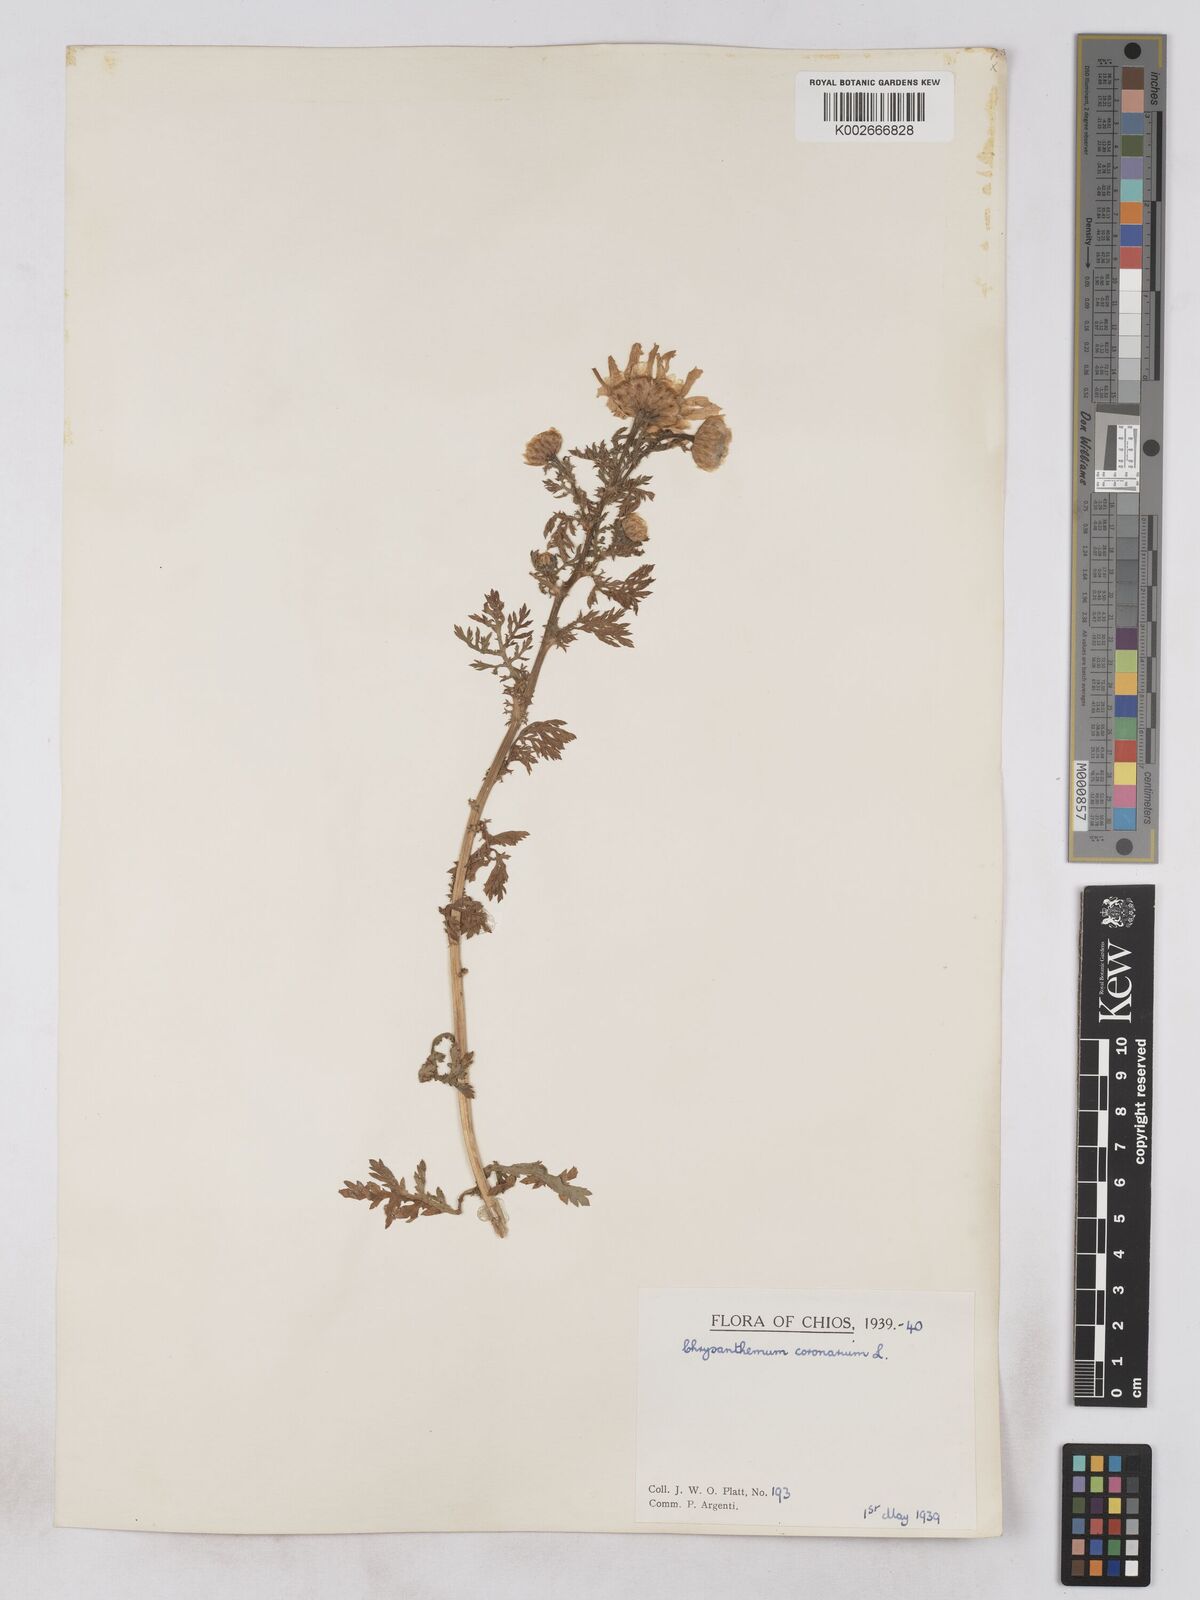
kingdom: Plantae
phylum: Tracheophyta
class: Magnoliopsida
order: Asterales
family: Asteraceae
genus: Glebionis
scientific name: Glebionis coronaria
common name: Crowndaisy
